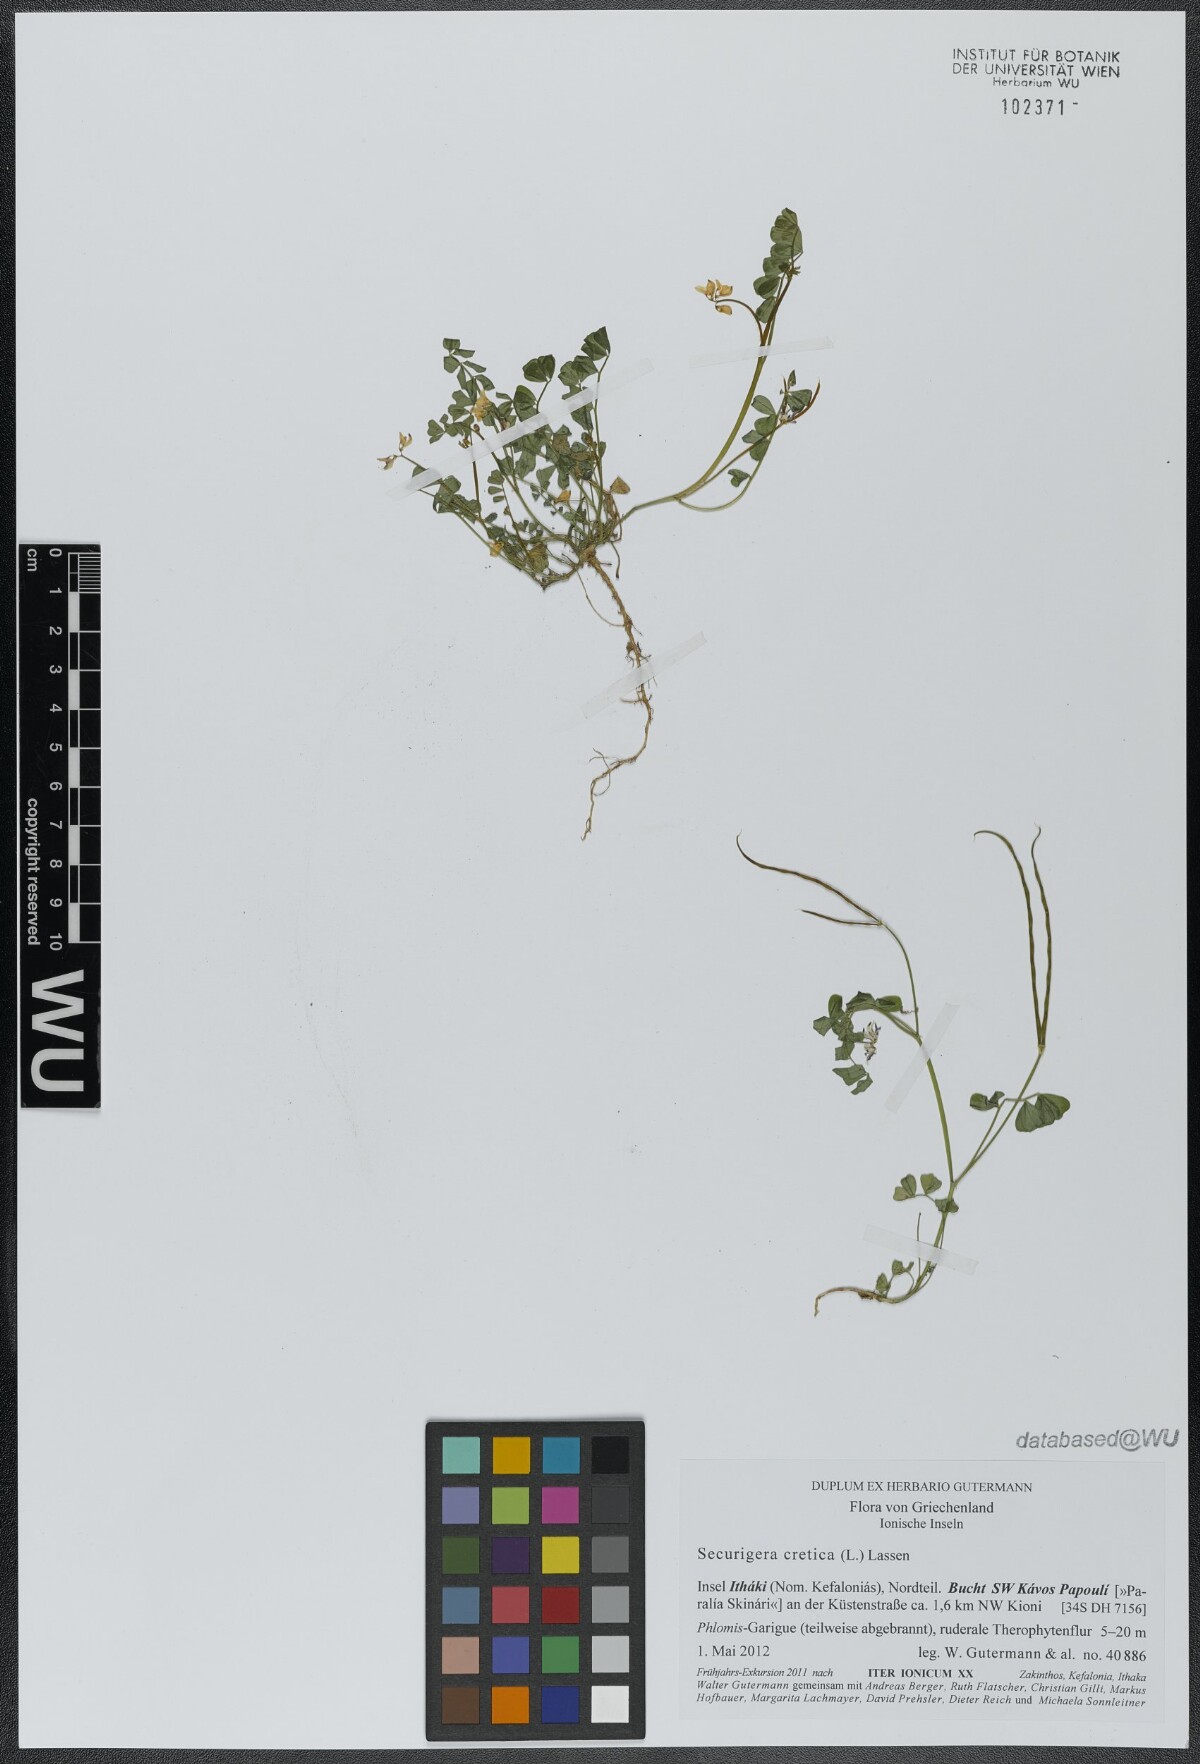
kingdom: Plantae
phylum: Tracheophyta
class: Magnoliopsida
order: Fabales
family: Fabaceae
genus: Coronilla
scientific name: Coronilla cretica
